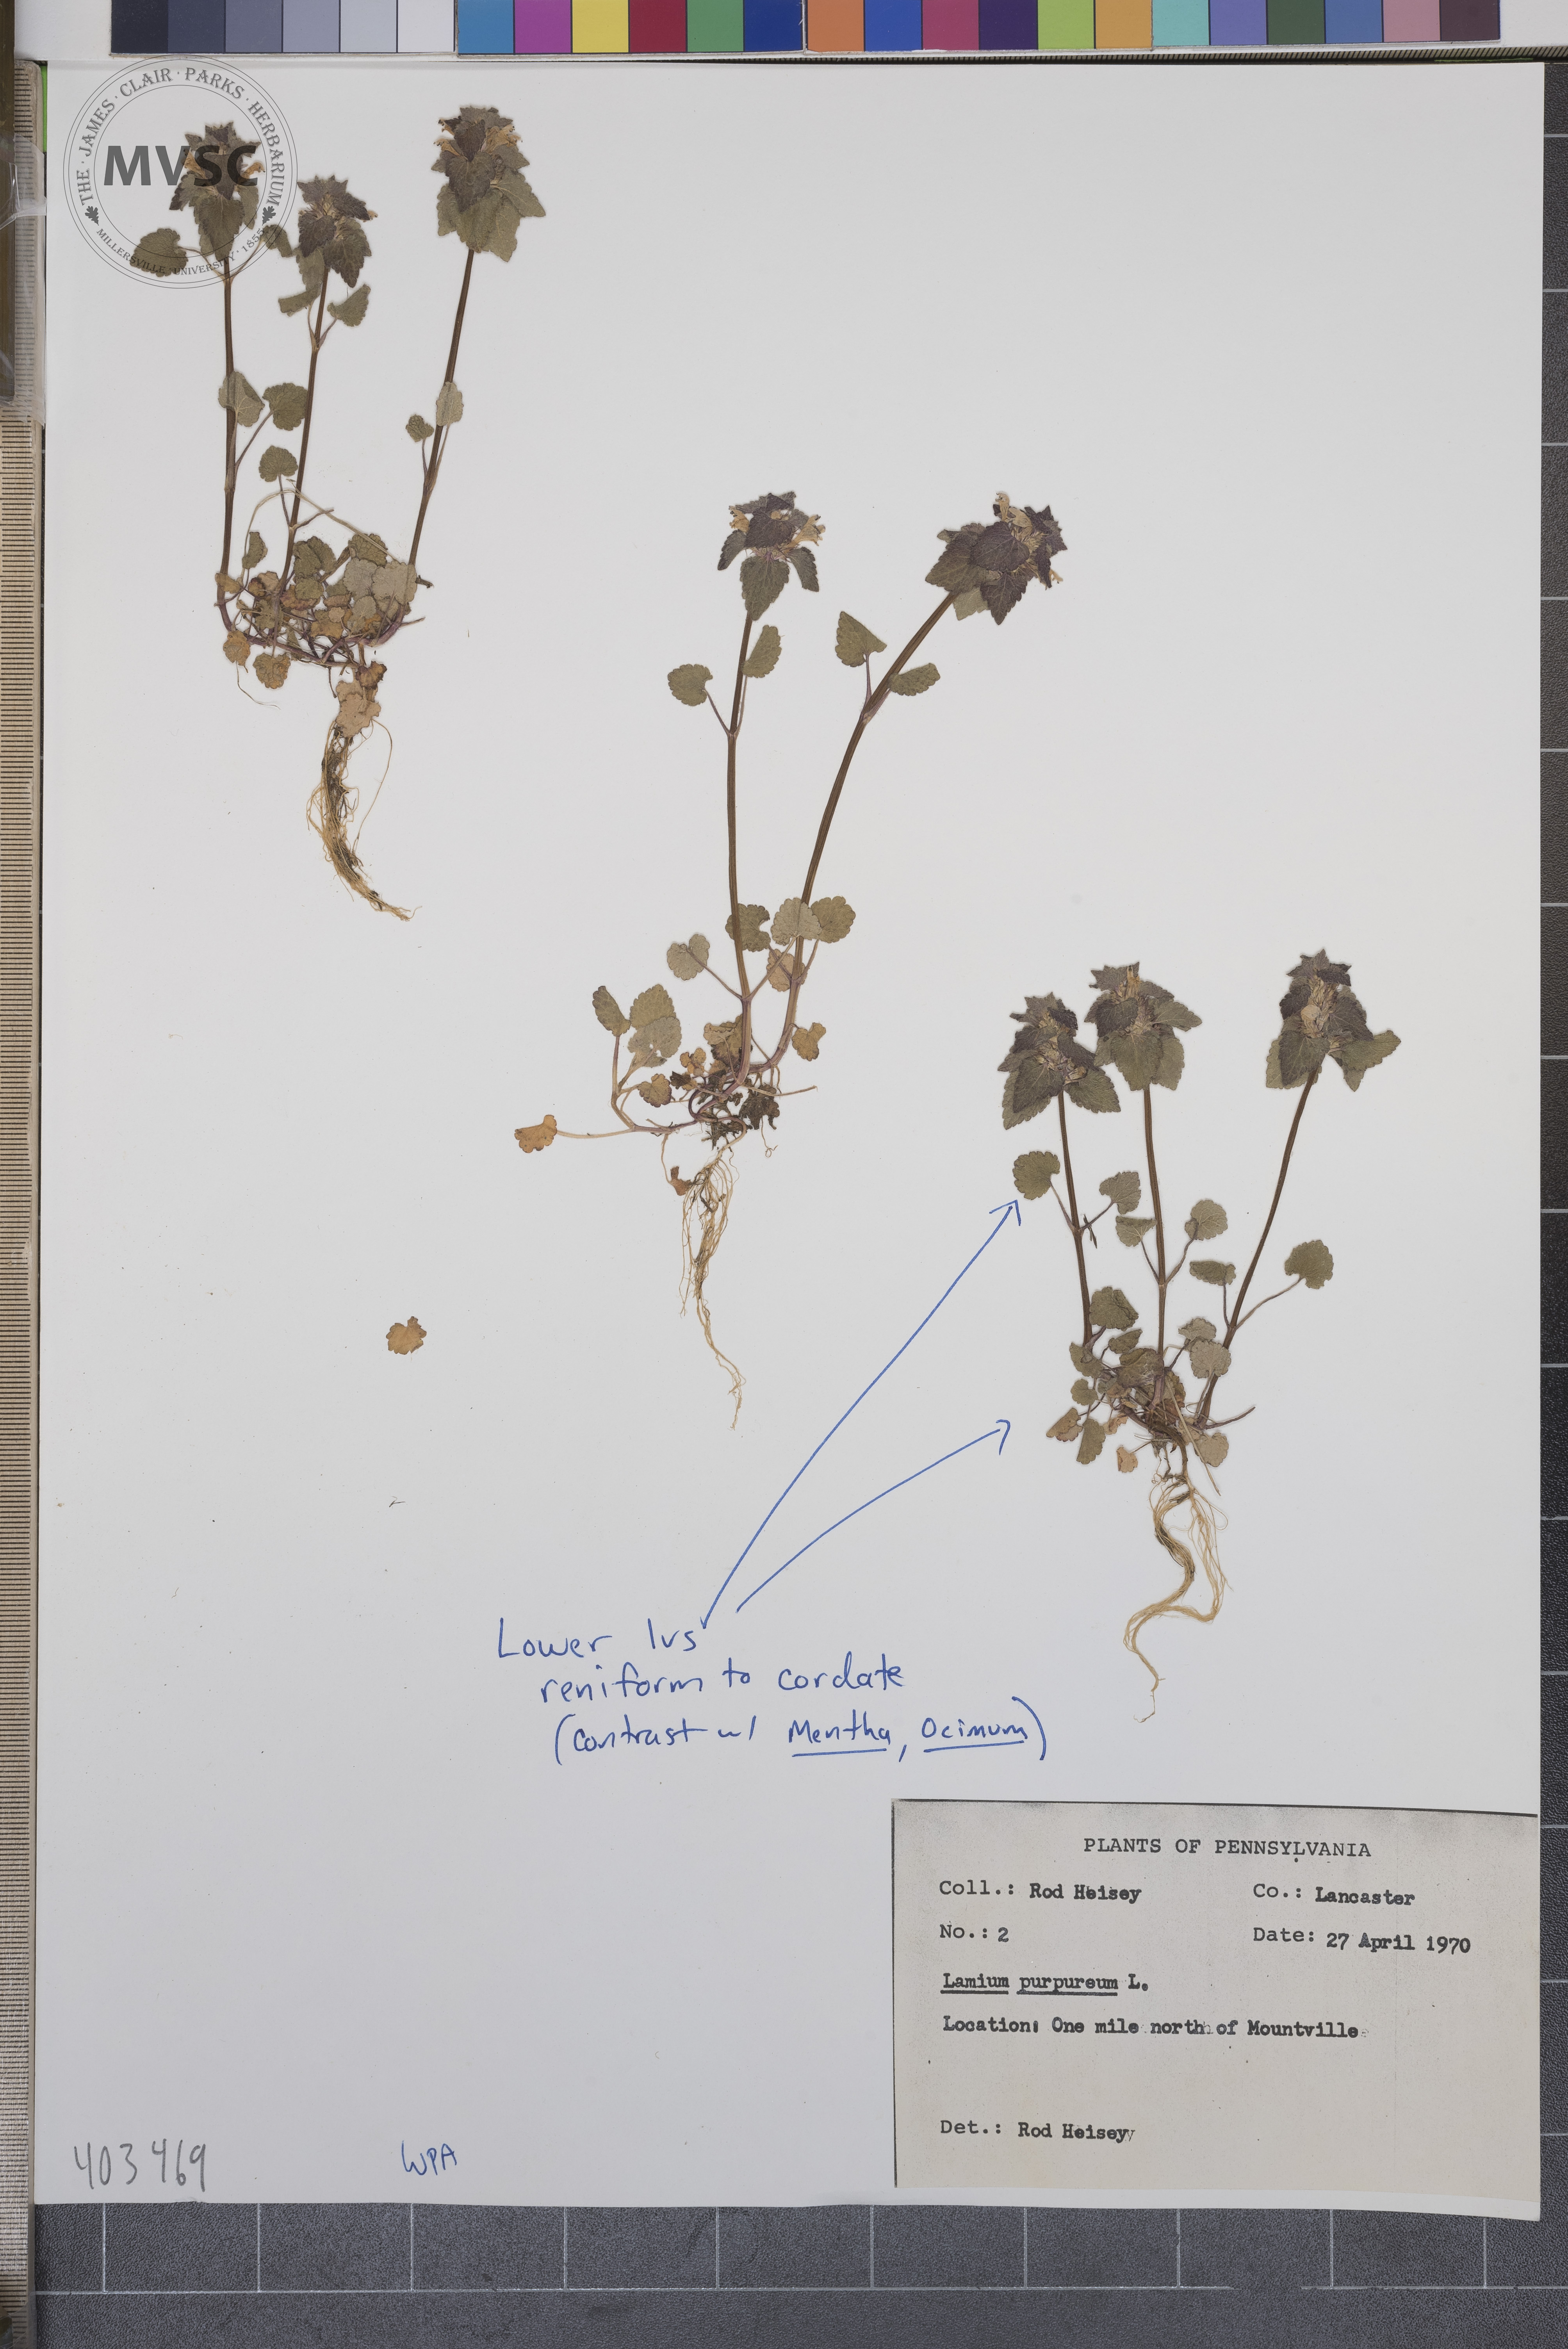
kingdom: Plantae
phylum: Tracheophyta
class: Magnoliopsida
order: Lamiales
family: Lamiaceae
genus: Lamium
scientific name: Lamium purpureum
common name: Purple Deadnettle
